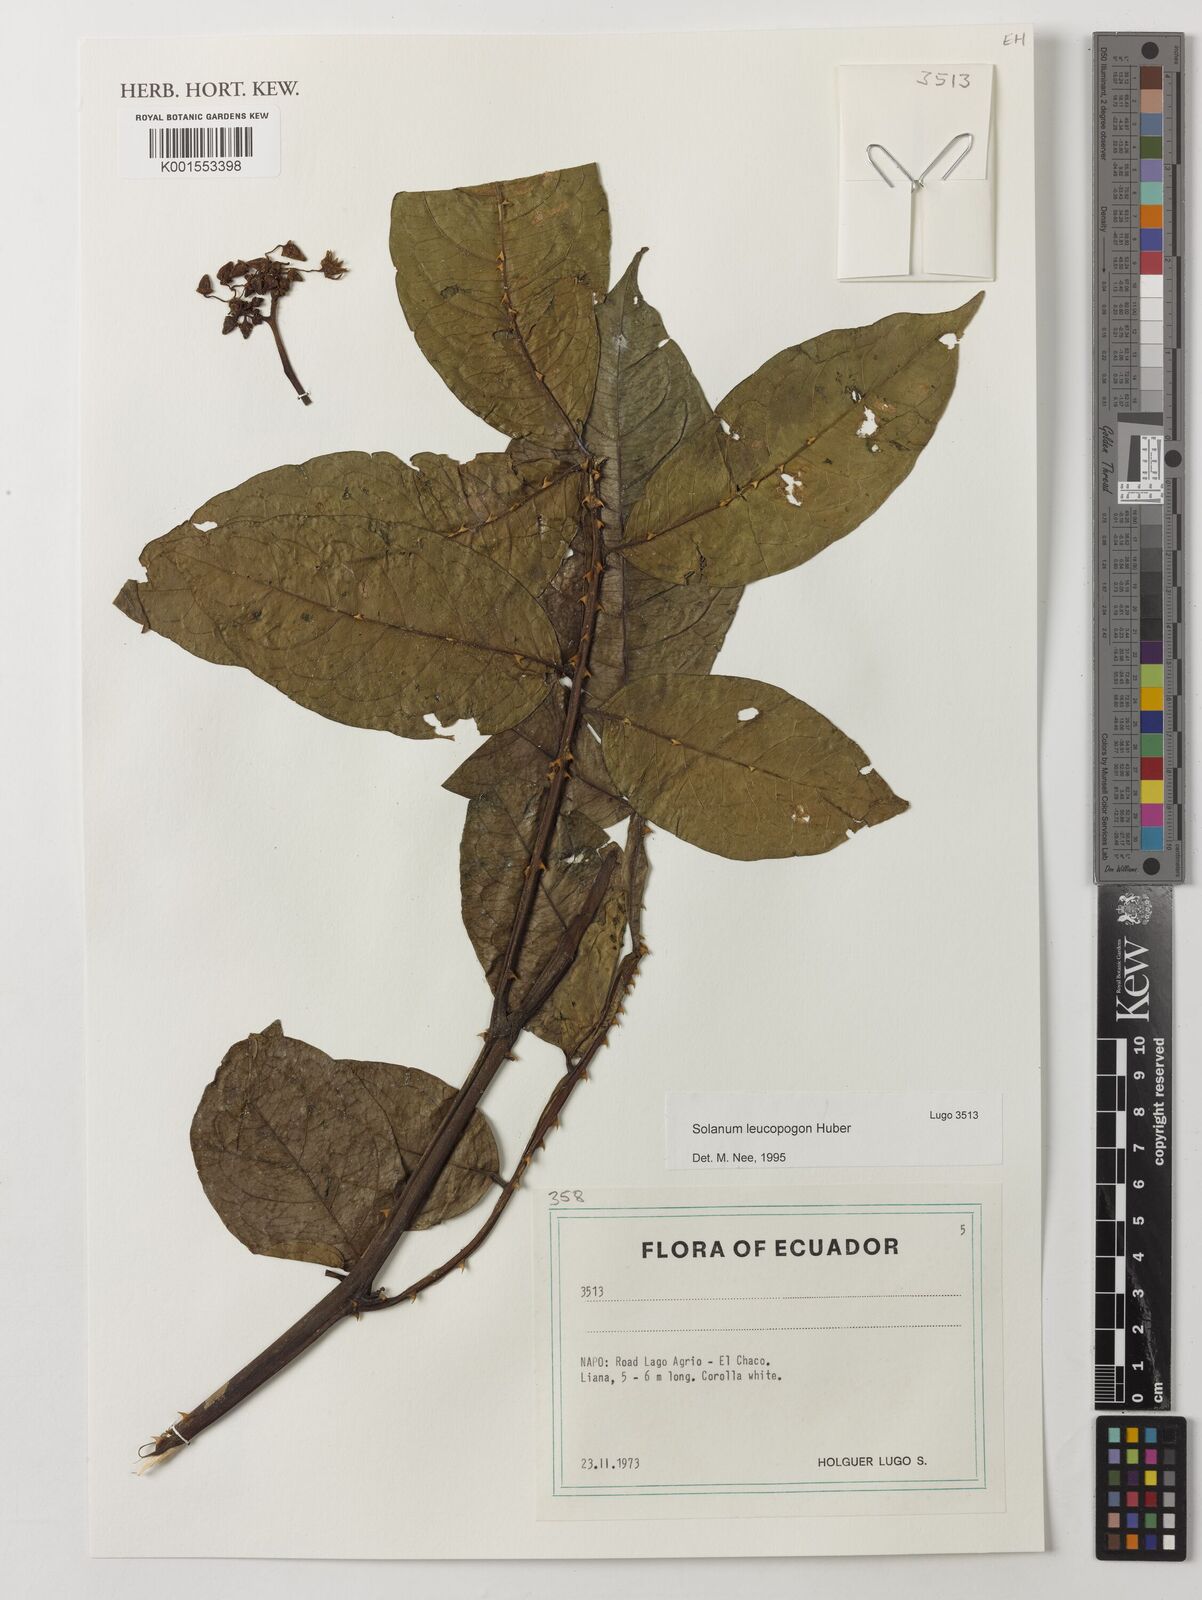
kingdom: Plantae
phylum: Tracheophyta
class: Magnoliopsida
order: Solanales
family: Solanaceae
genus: Solanum
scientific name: Solanum leucopogon
